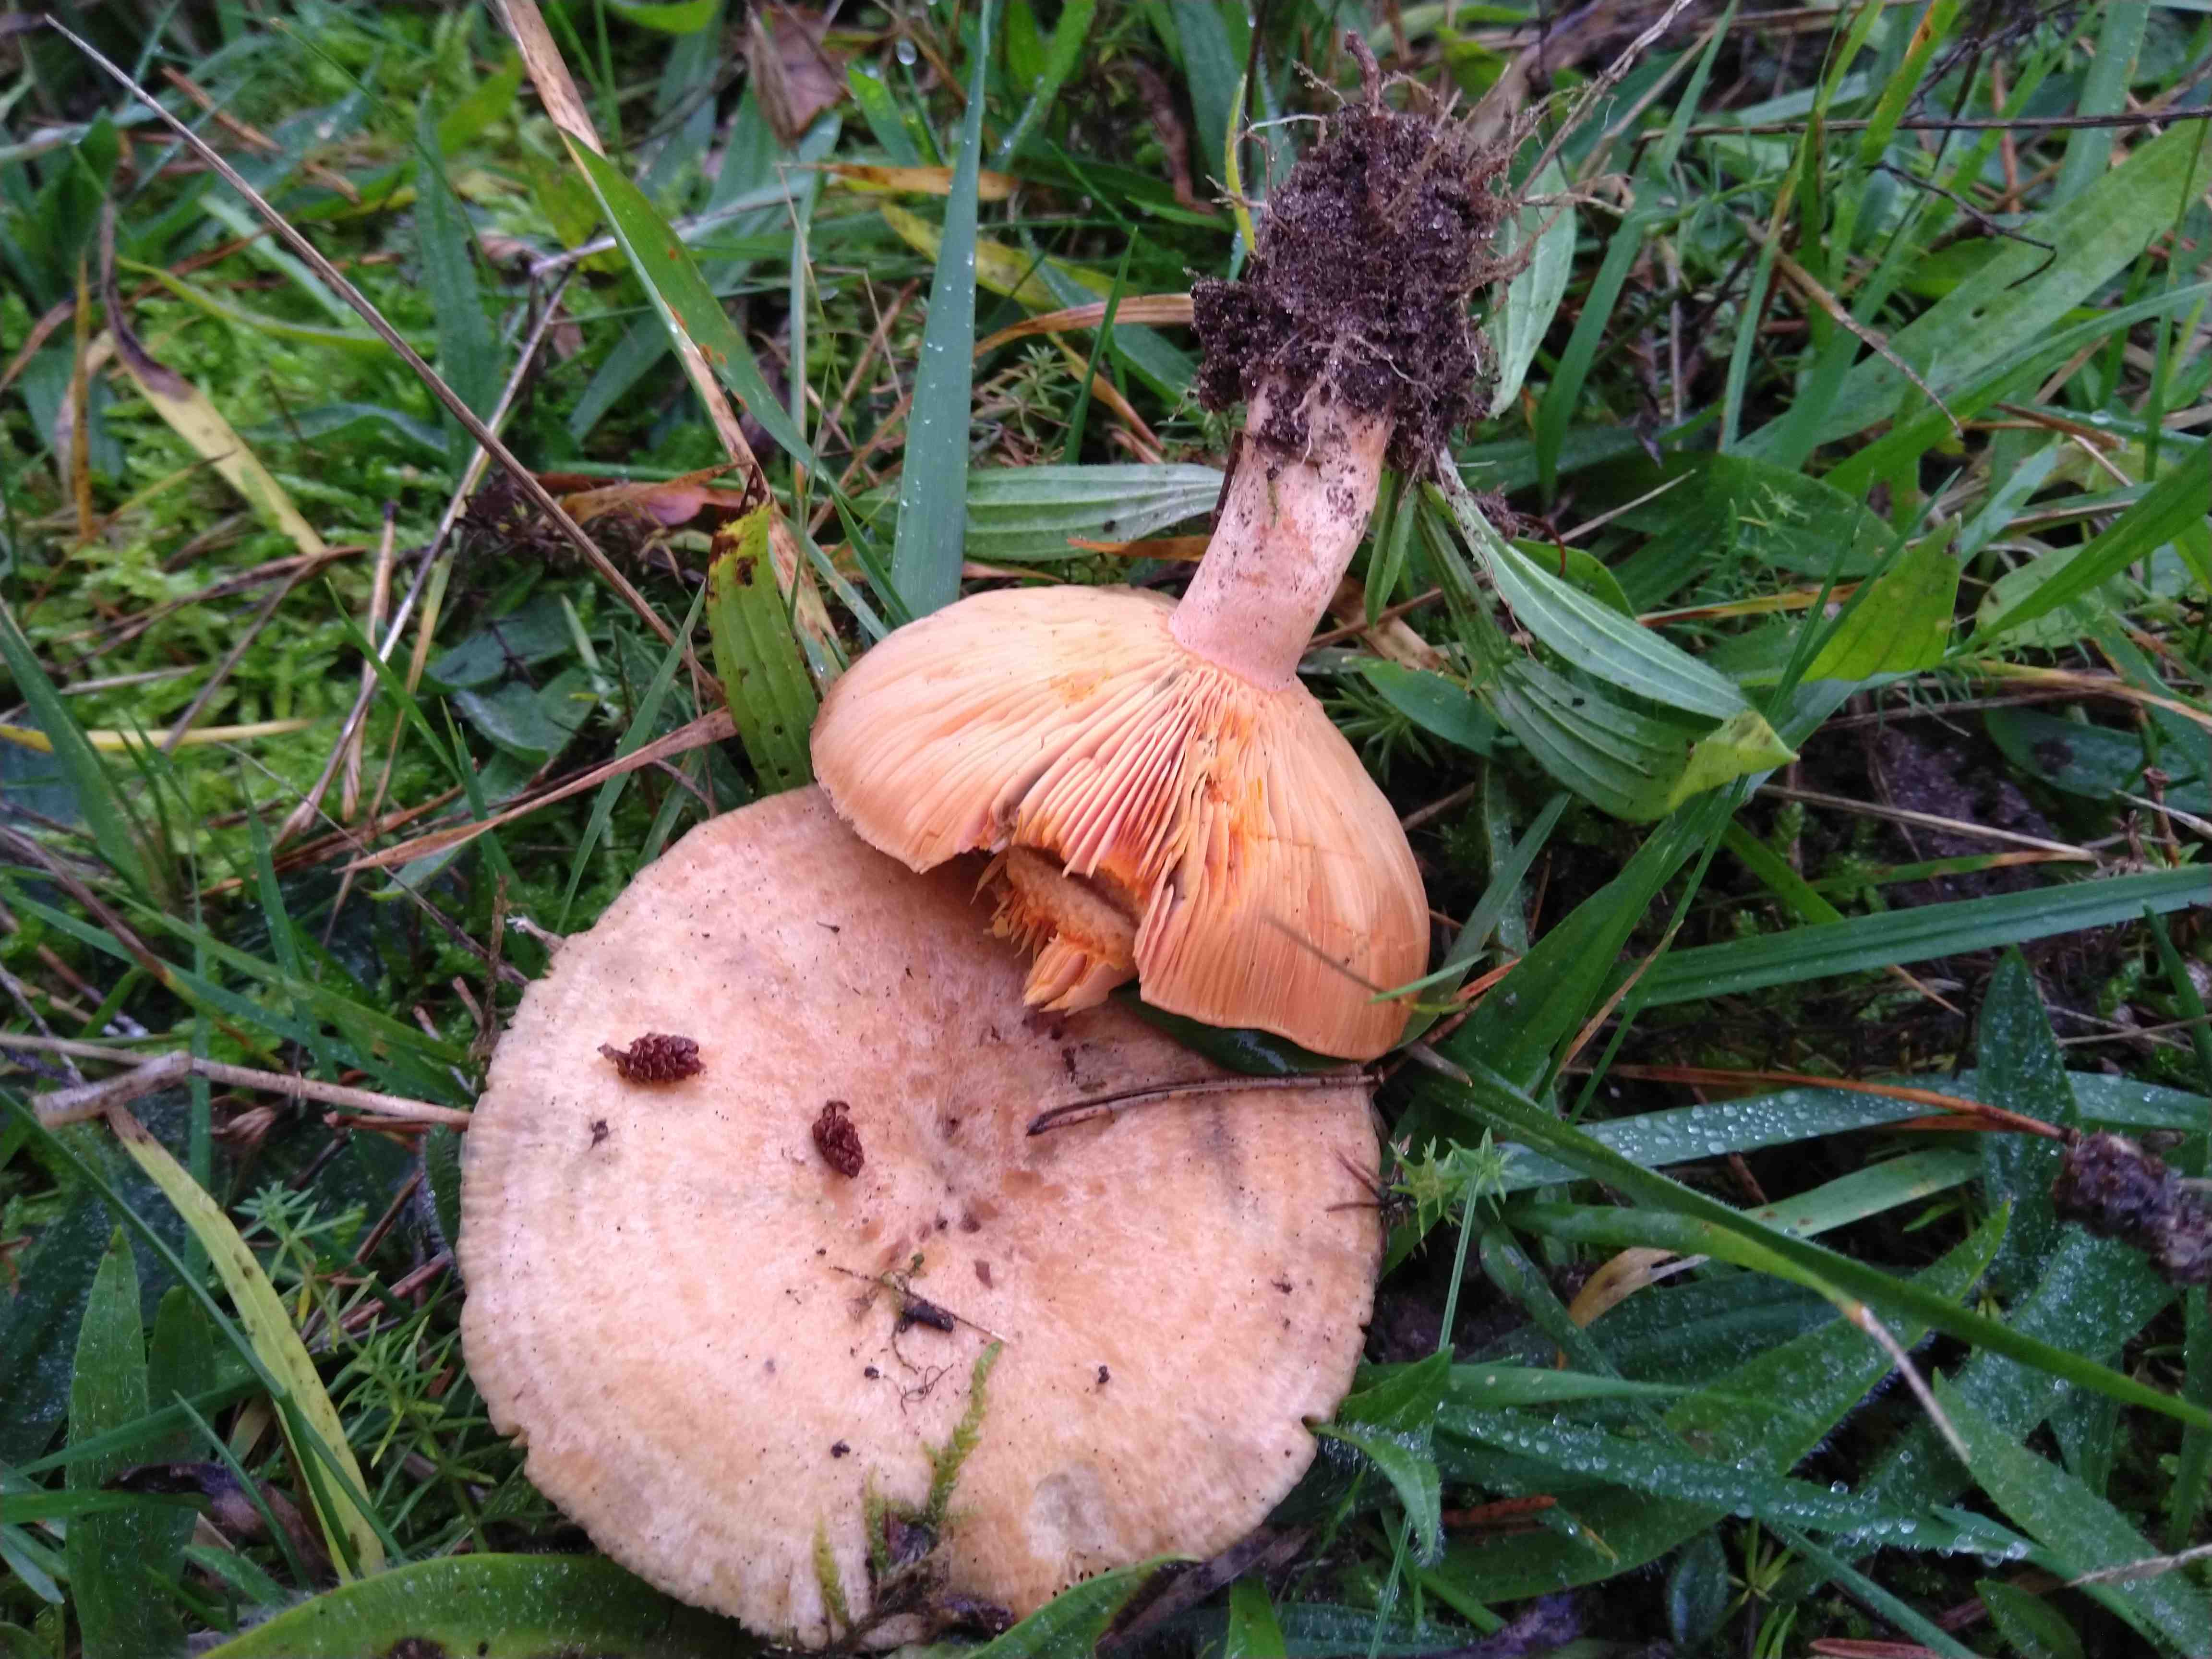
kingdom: Fungi
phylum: Basidiomycota
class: Agaricomycetes
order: Russulales
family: Russulaceae
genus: Lactarius
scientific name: Lactarius deterrimus
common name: gran-mælkehat
